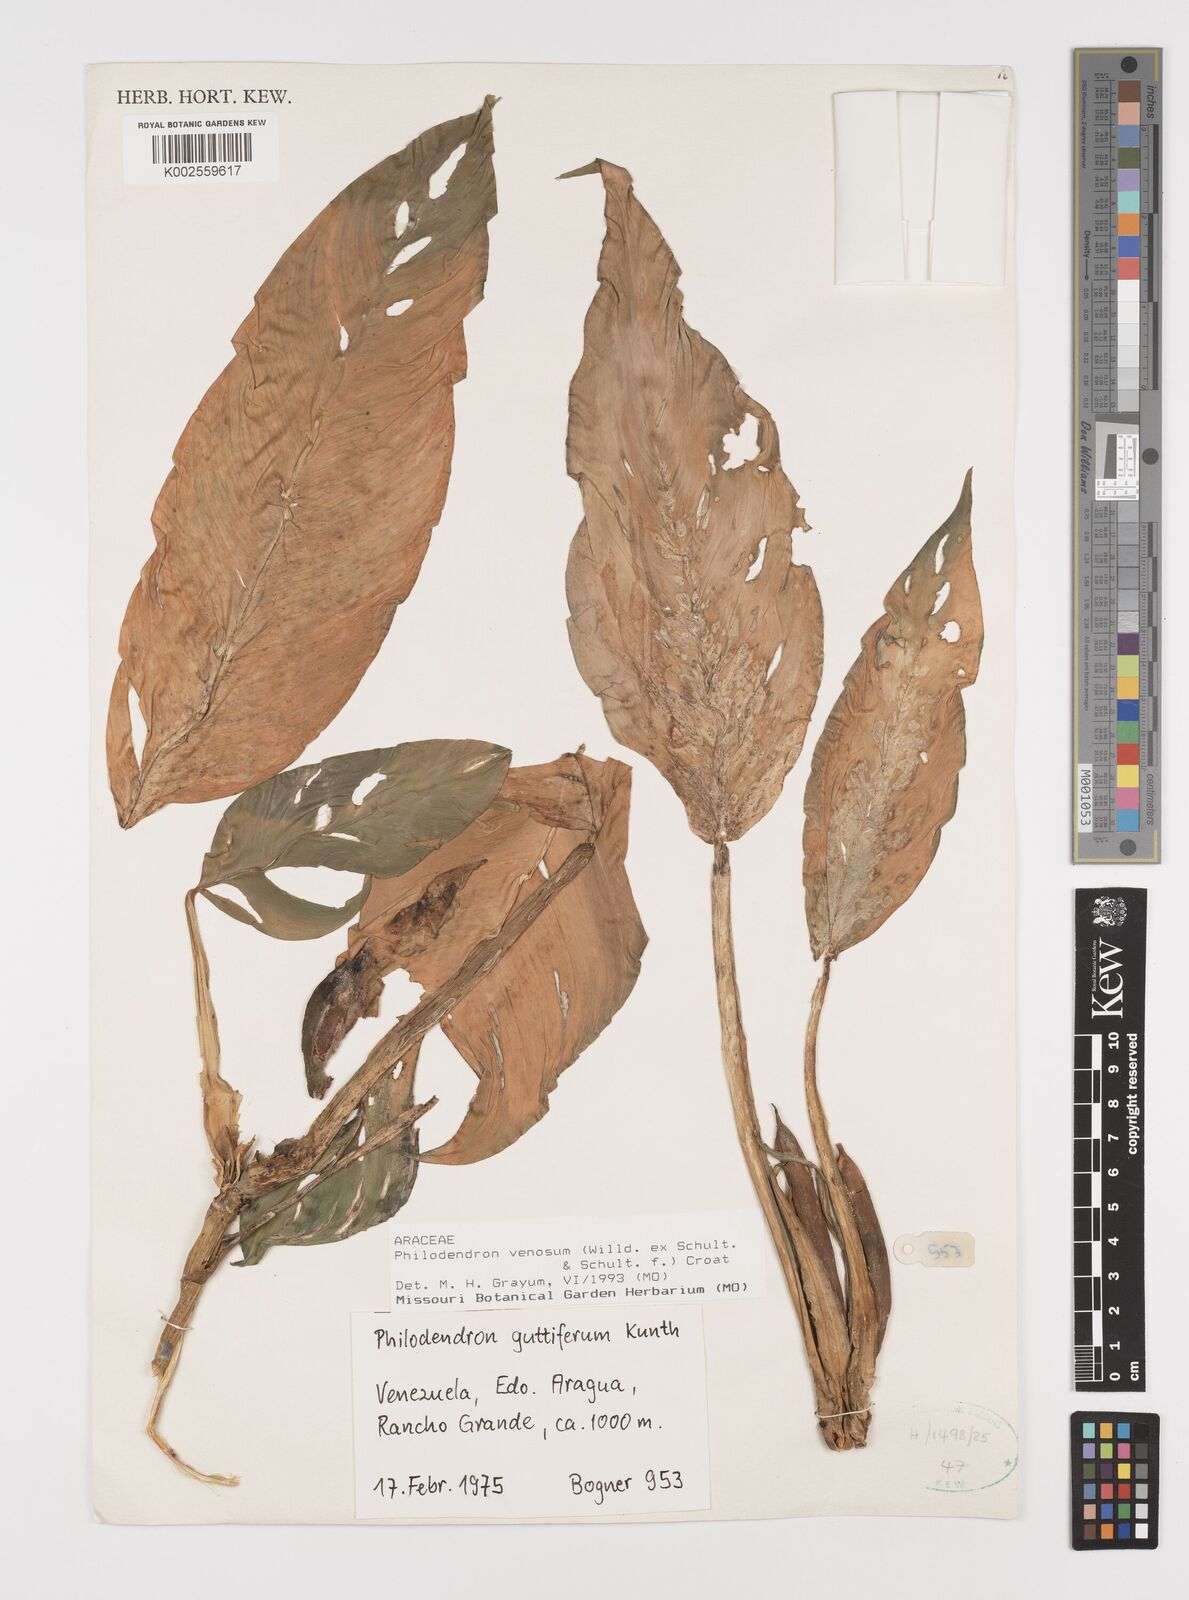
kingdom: Plantae
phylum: Tracheophyta
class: Liliopsida
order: Alismatales
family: Araceae
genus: Philodendron
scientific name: Philodendron venosum
